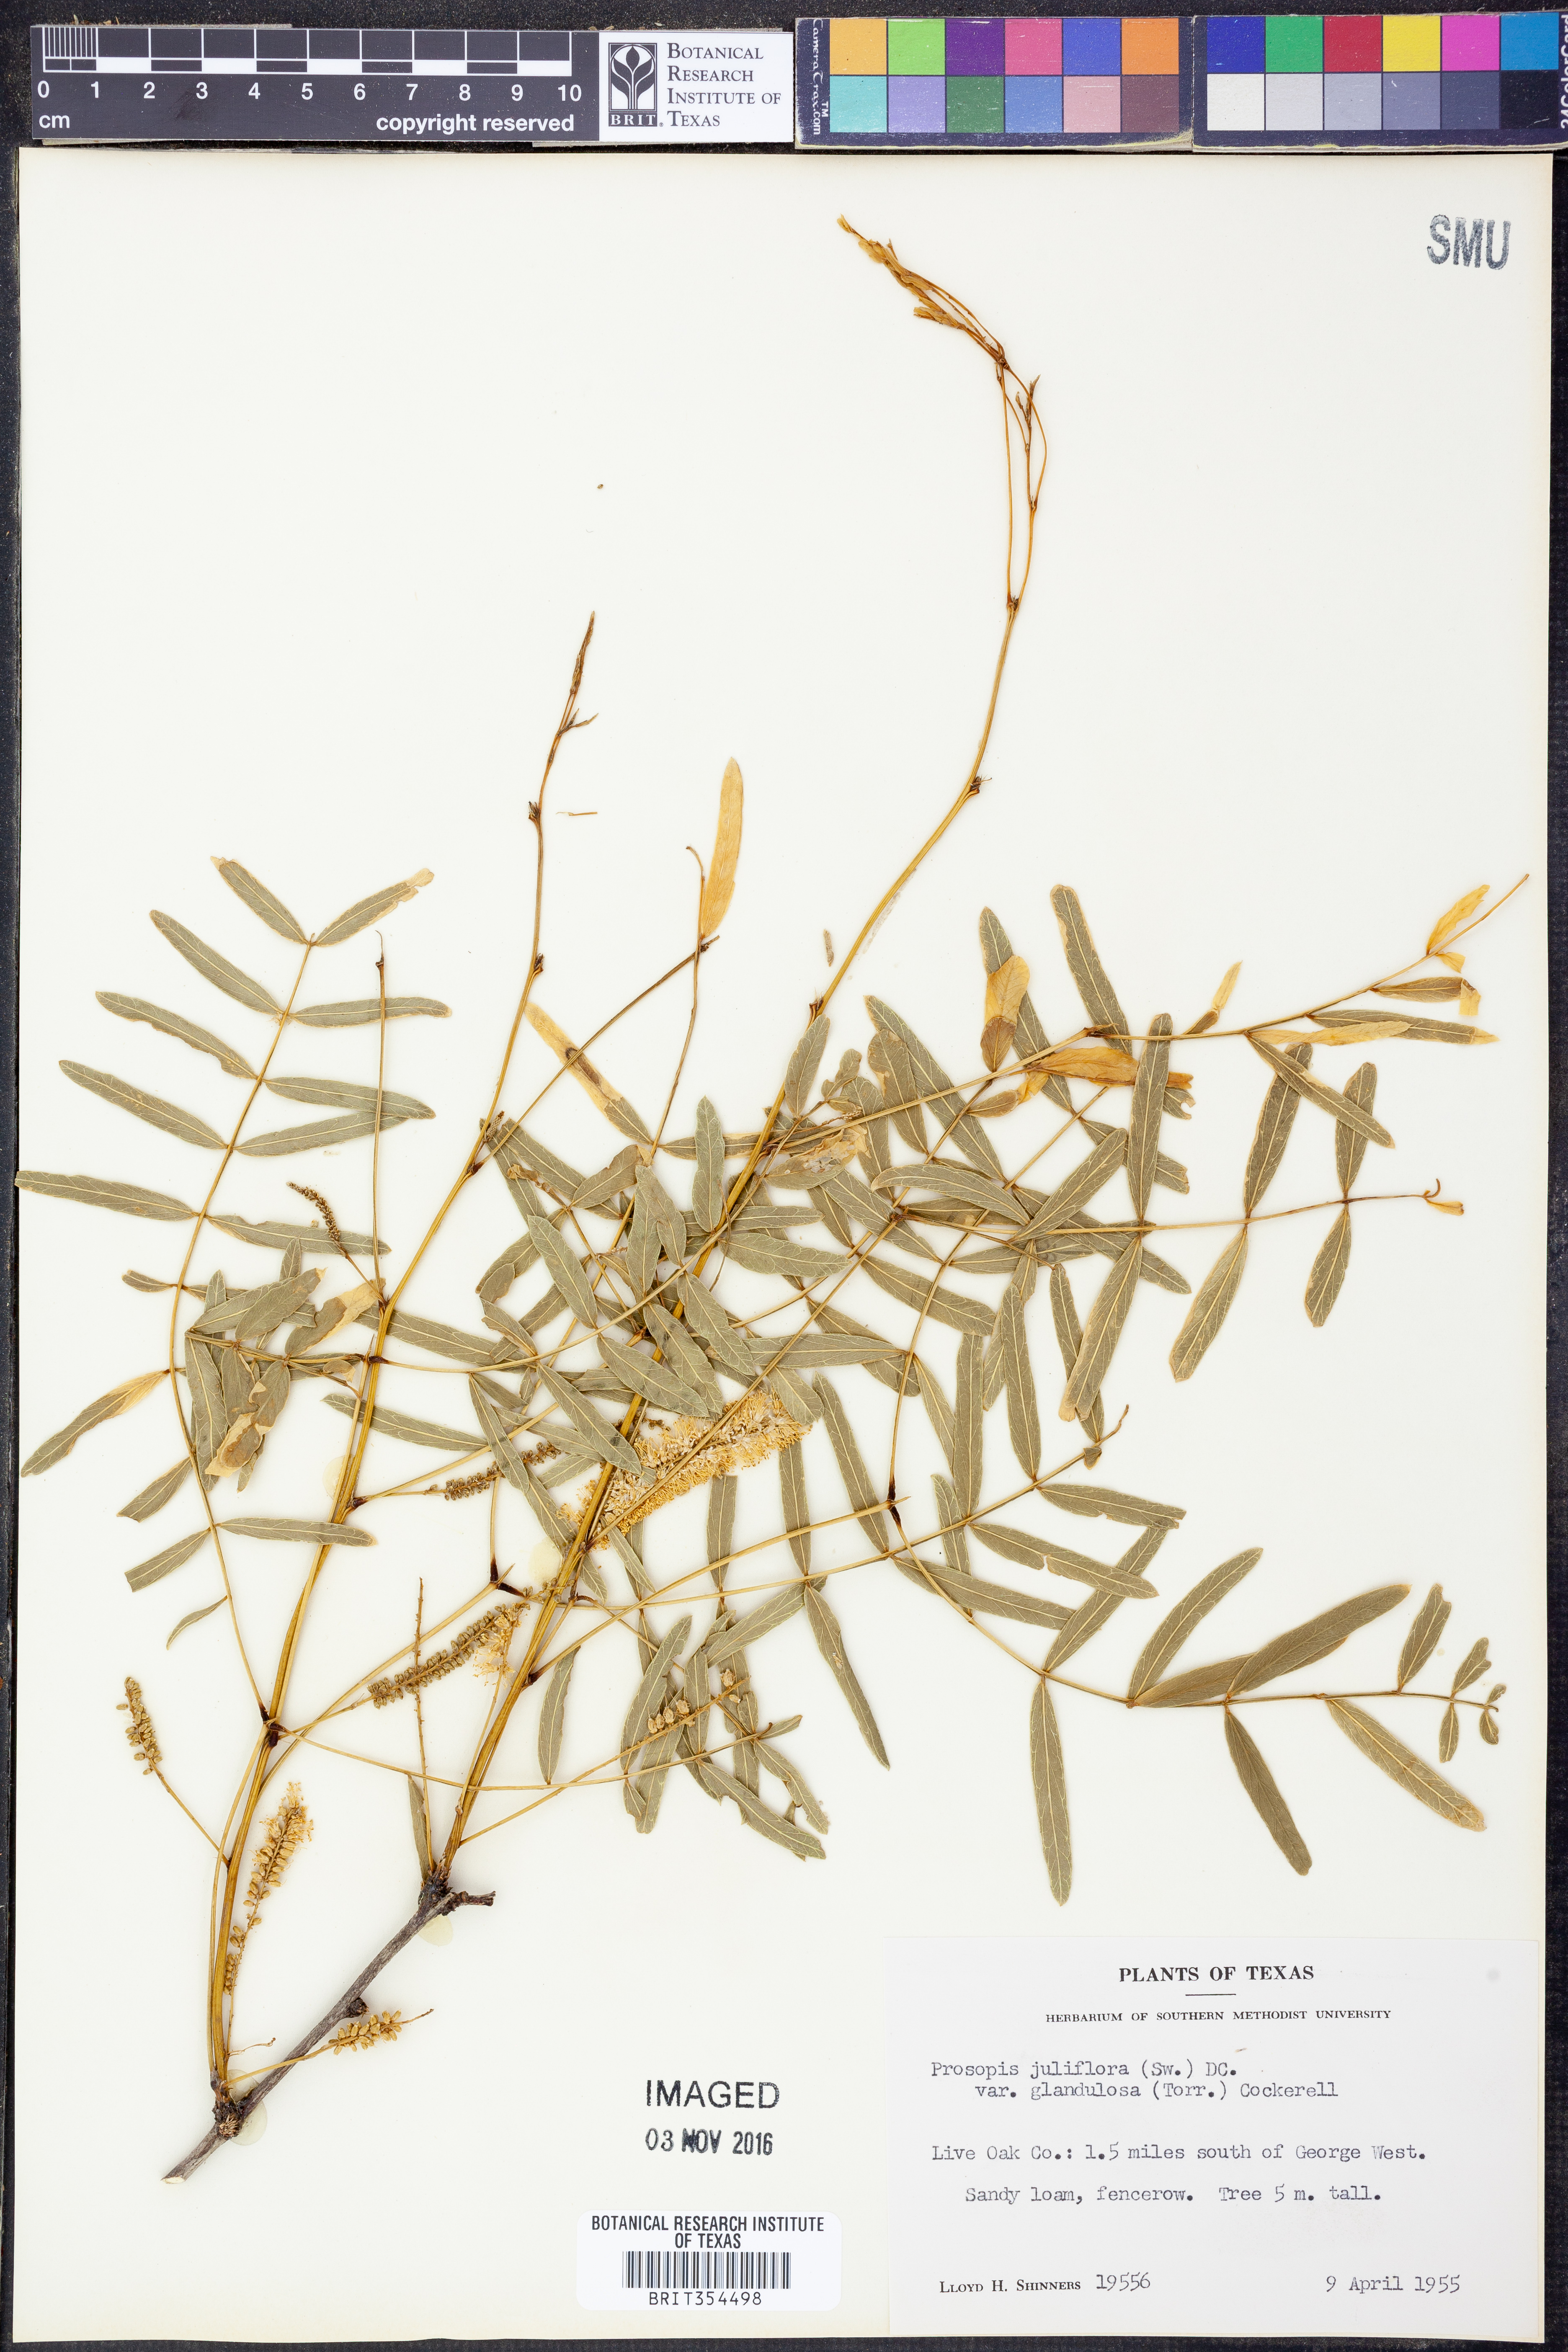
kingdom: Plantae
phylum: Tracheophyta
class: Magnoliopsida
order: Fabales
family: Fabaceae
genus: Prosopis
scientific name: Prosopis glandulosa
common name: Honey mesquite
